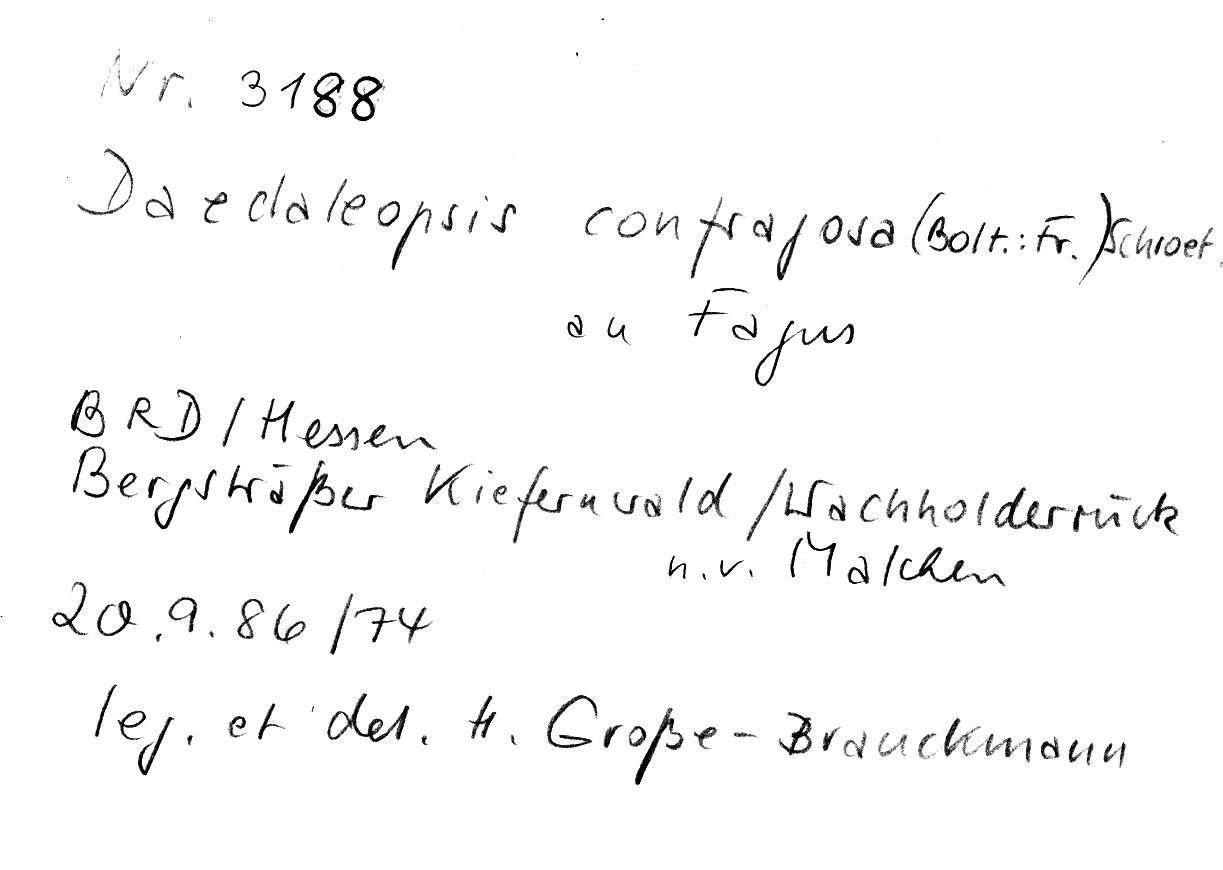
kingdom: Fungi
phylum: Basidiomycota
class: Agaricomycetes
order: Polyporales
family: Polyporaceae
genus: Daedaleopsis
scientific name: Daedaleopsis confragosa
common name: Blushing bracket
